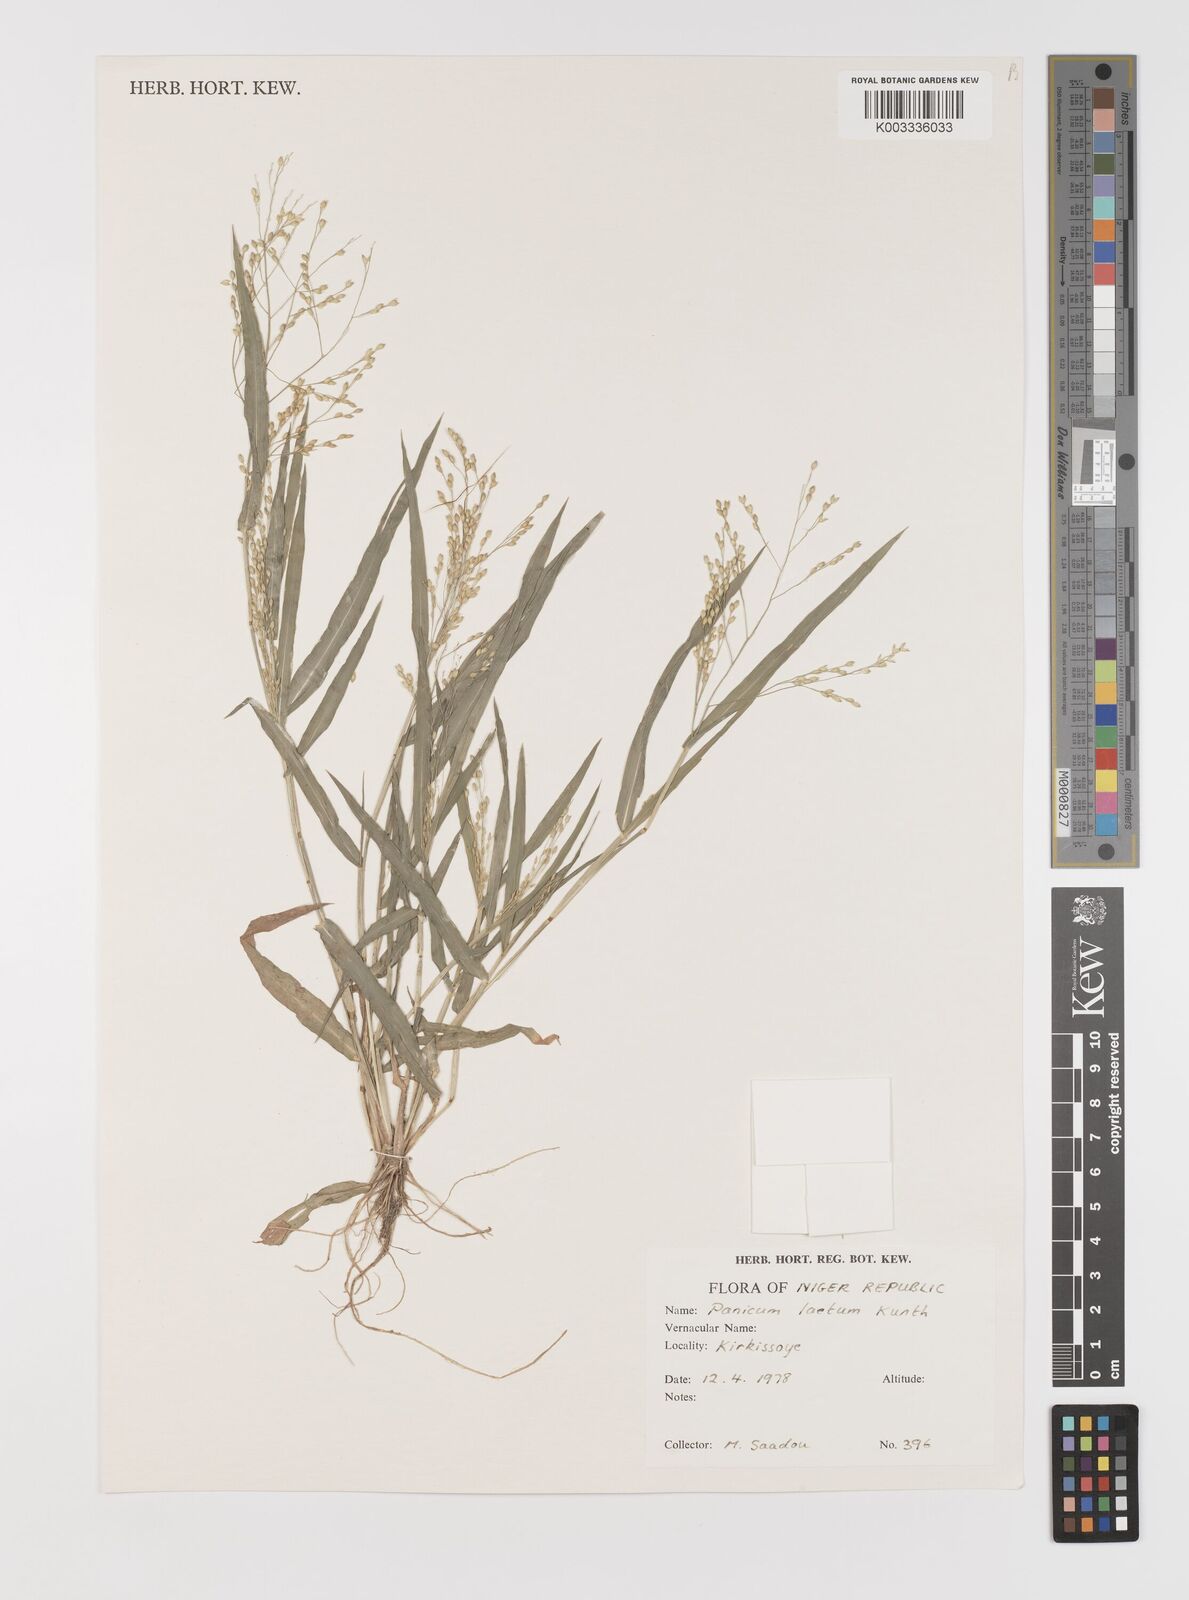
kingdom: Plantae
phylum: Tracheophyta
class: Liliopsida
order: Poales
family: Poaceae
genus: Panicum
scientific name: Panicum laetum
